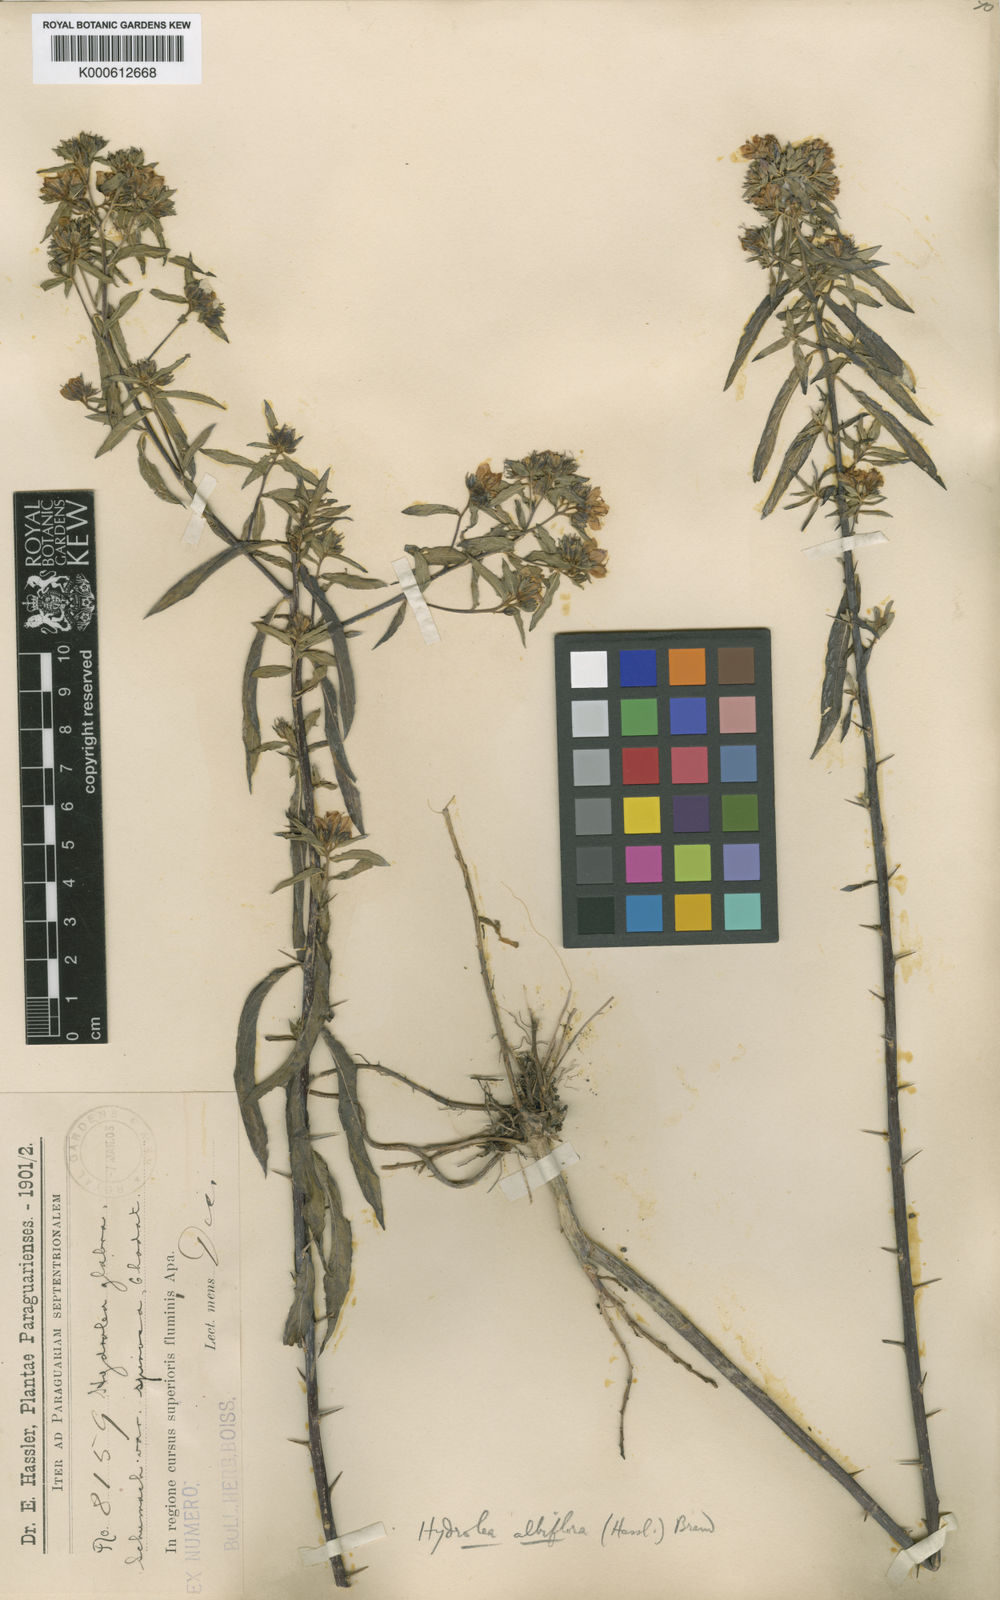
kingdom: Plantae
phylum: Tracheophyta
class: Magnoliopsida
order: Solanales
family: Hydroleaceae
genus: Hydrolea
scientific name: Hydrolea elatior
